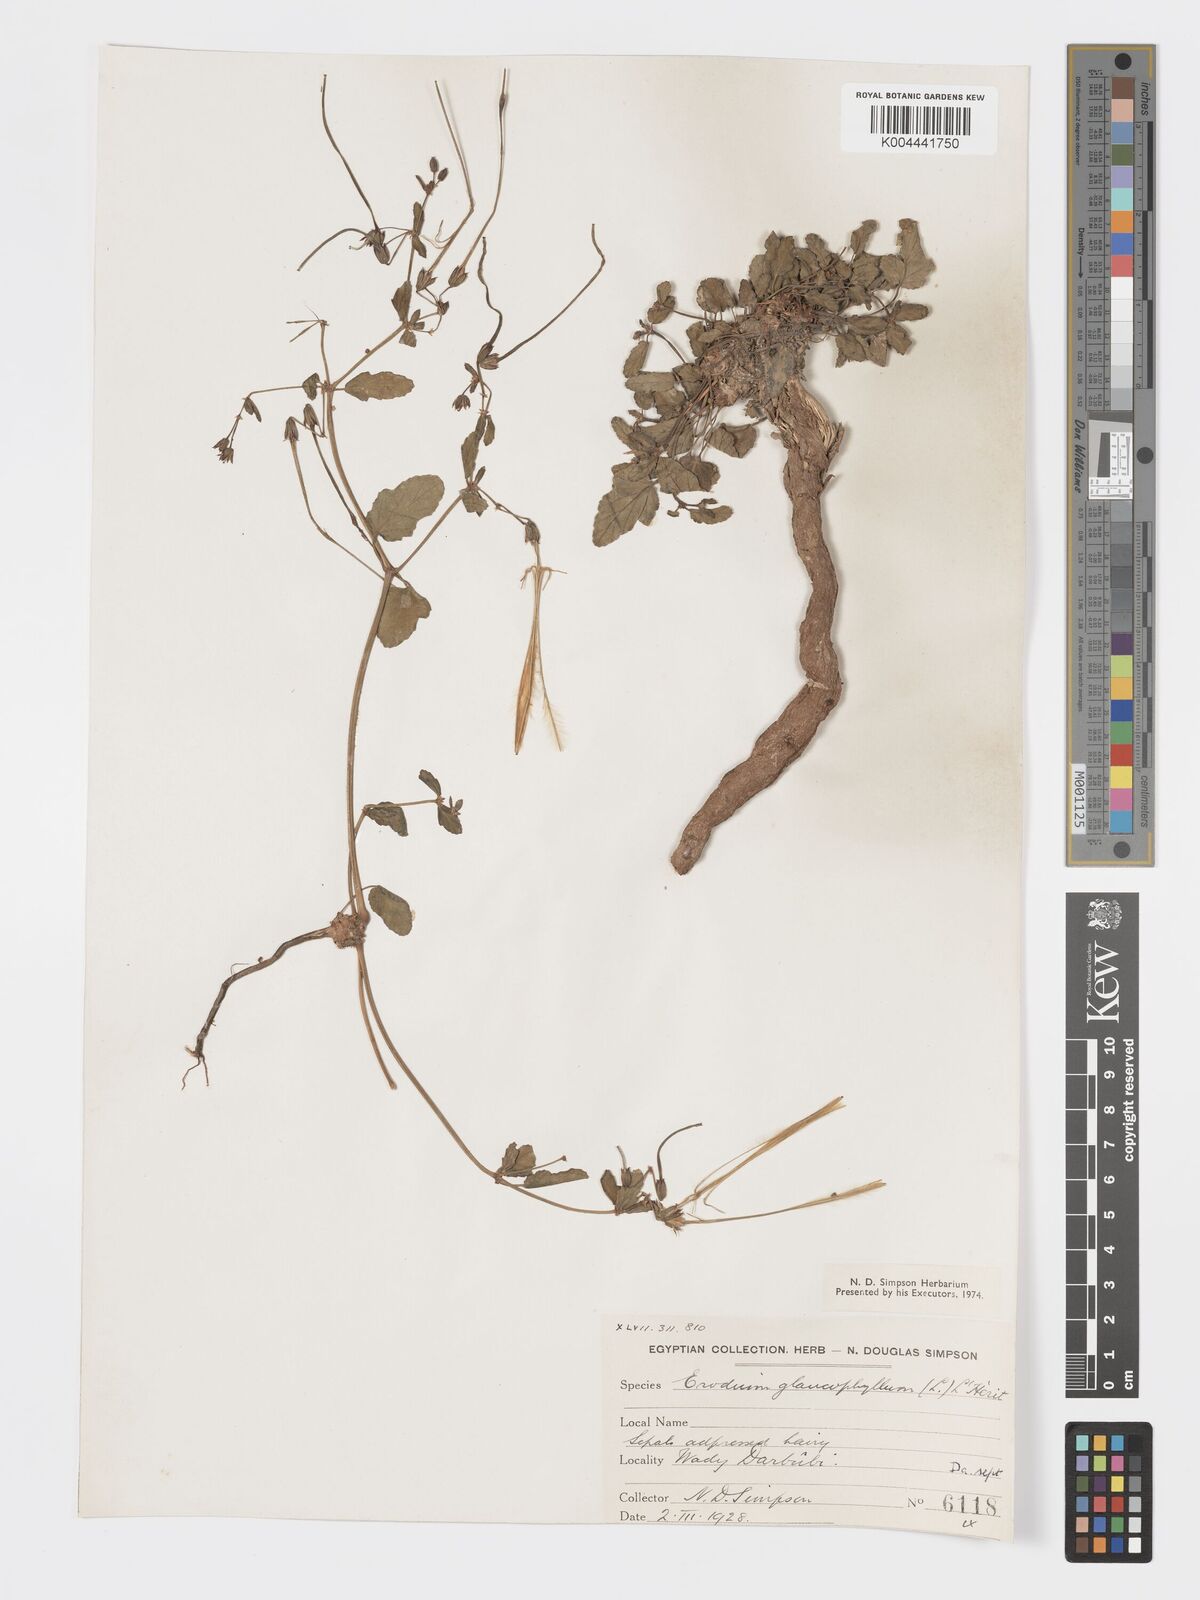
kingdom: Plantae
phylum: Tracheophyta
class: Magnoliopsida
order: Geraniales
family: Geraniaceae
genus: Erodium
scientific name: Erodium glaucophyllum
